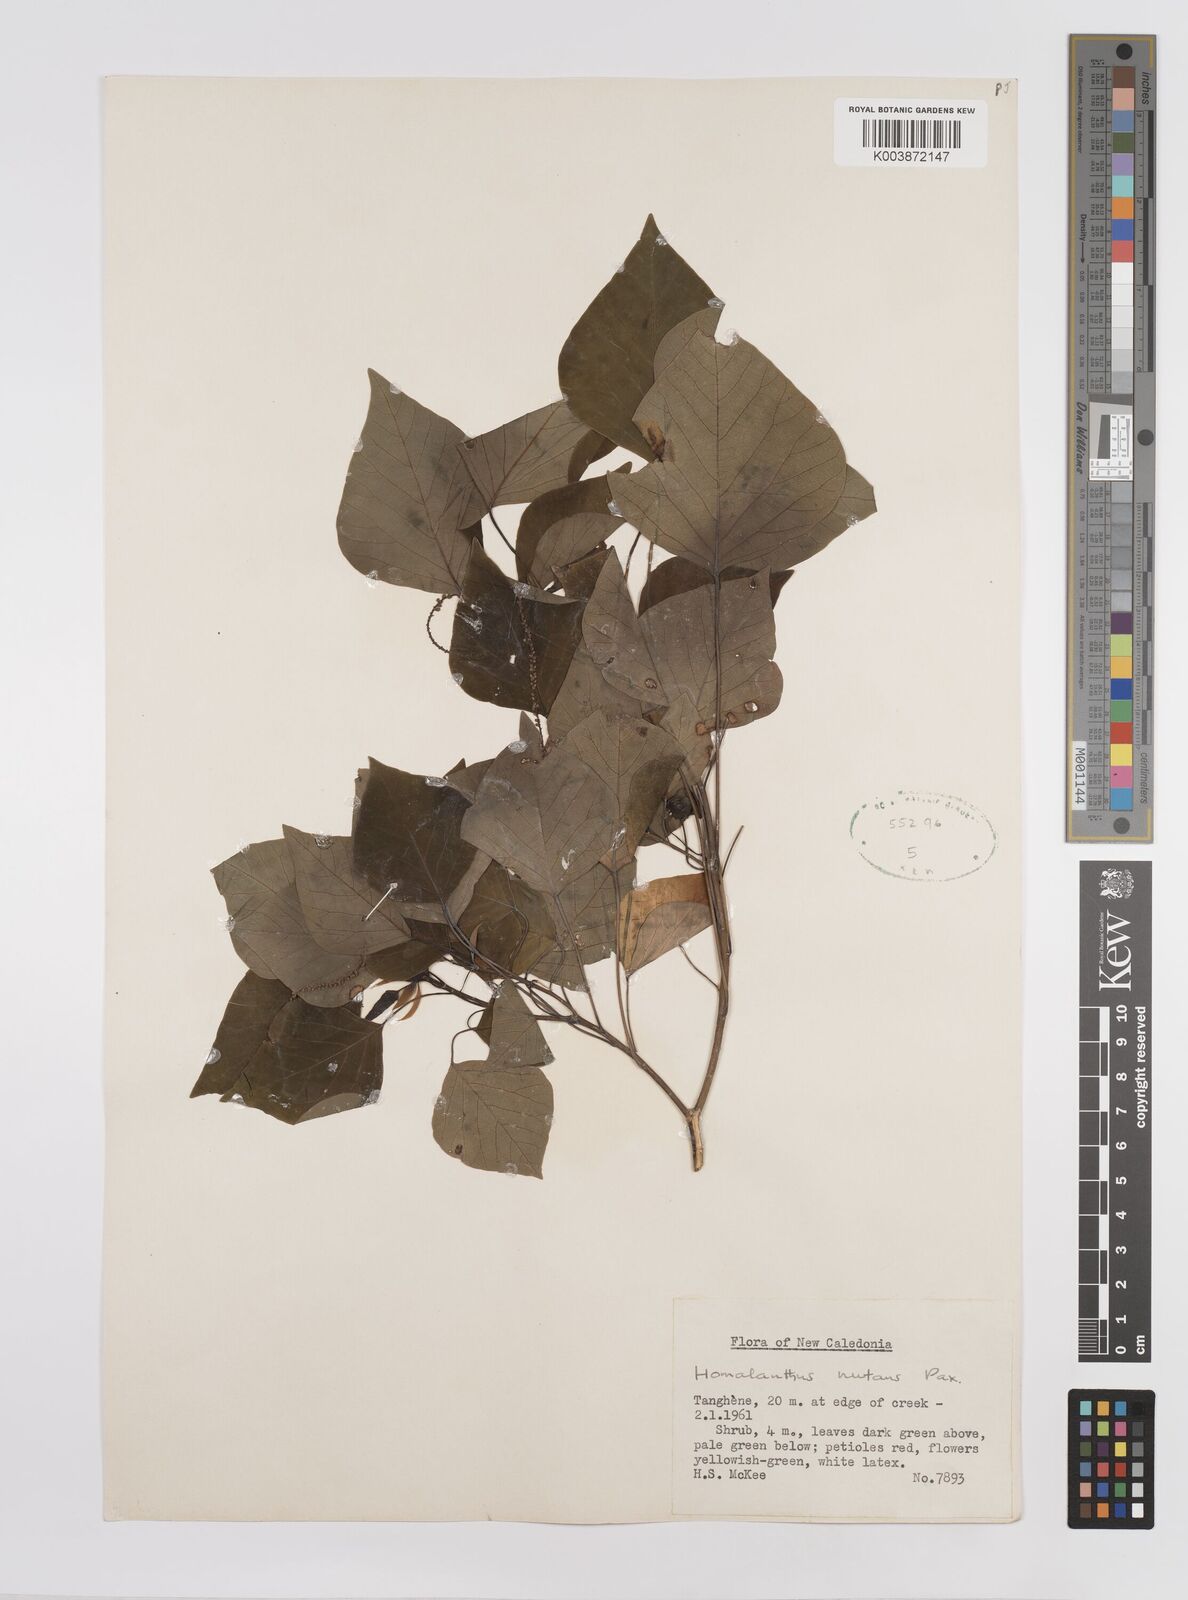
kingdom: Plantae
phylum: Tracheophyta
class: Magnoliopsida
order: Malpighiales
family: Euphorbiaceae
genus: Homalanthus
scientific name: Homalanthus nutans
